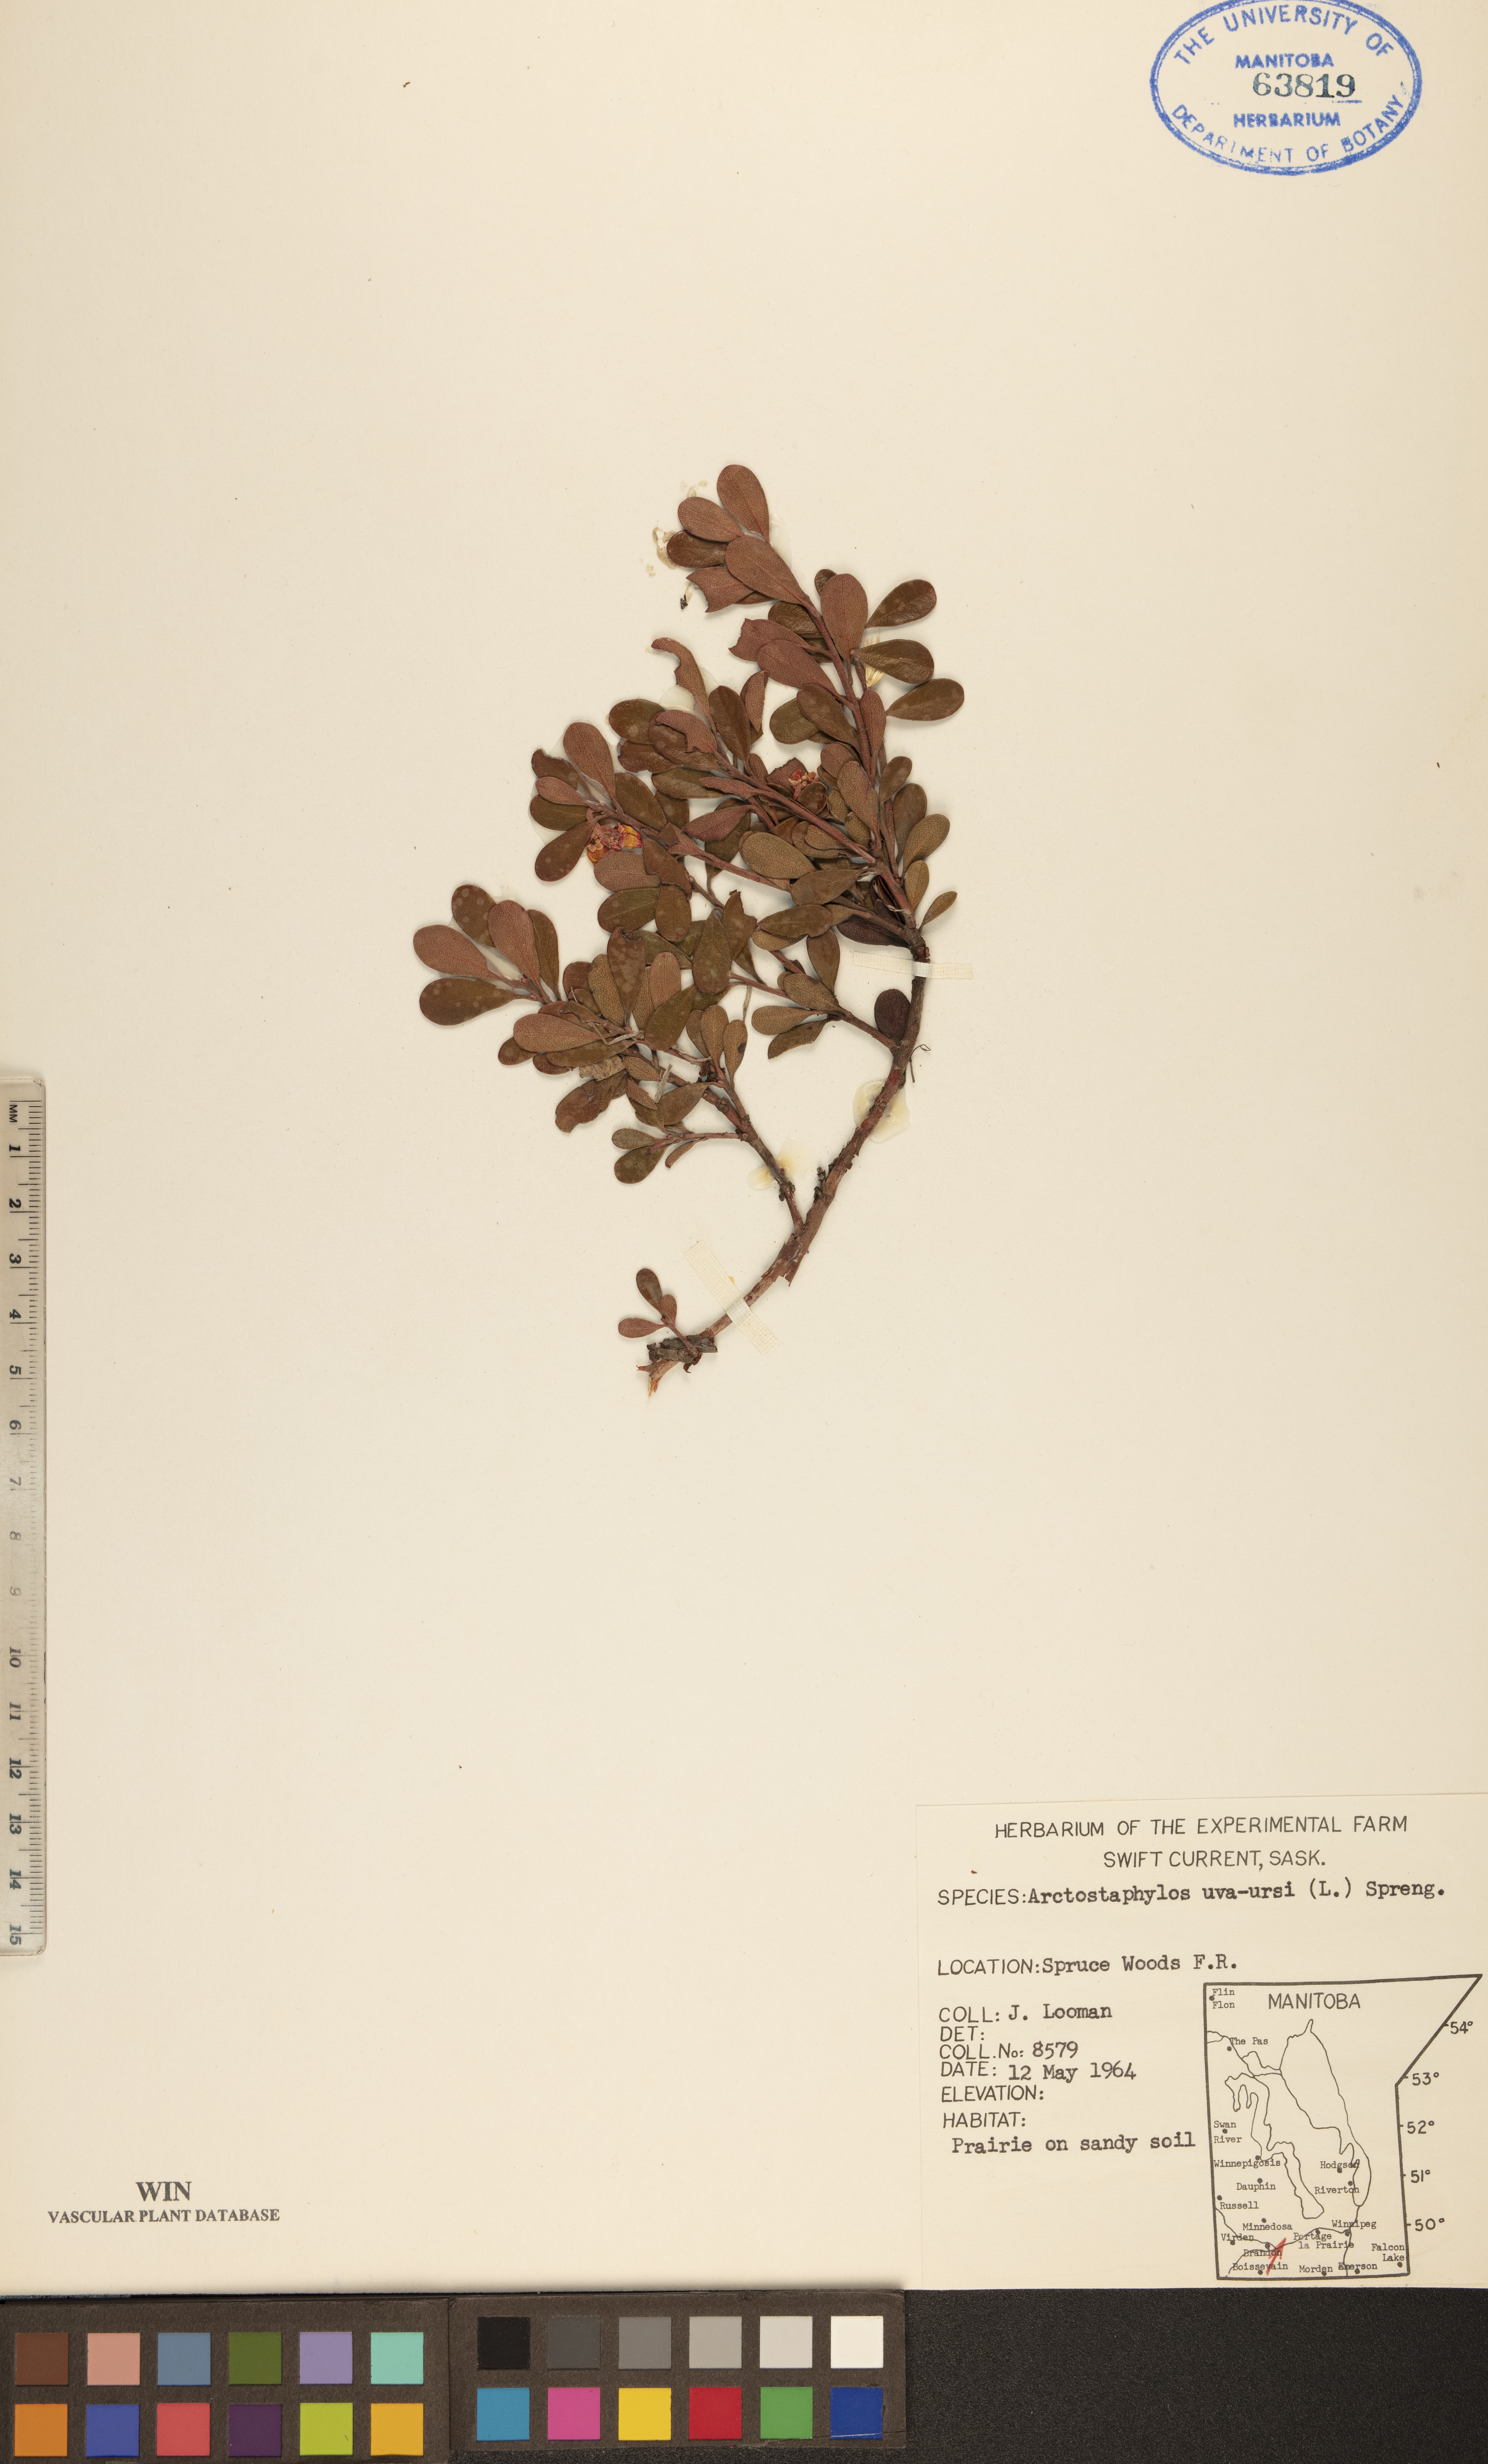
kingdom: Plantae
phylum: Tracheophyta
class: Magnoliopsida
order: Ericales
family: Ericaceae
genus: Arctostaphylos
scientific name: Arctostaphylos uva-ursi
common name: Bearberry
